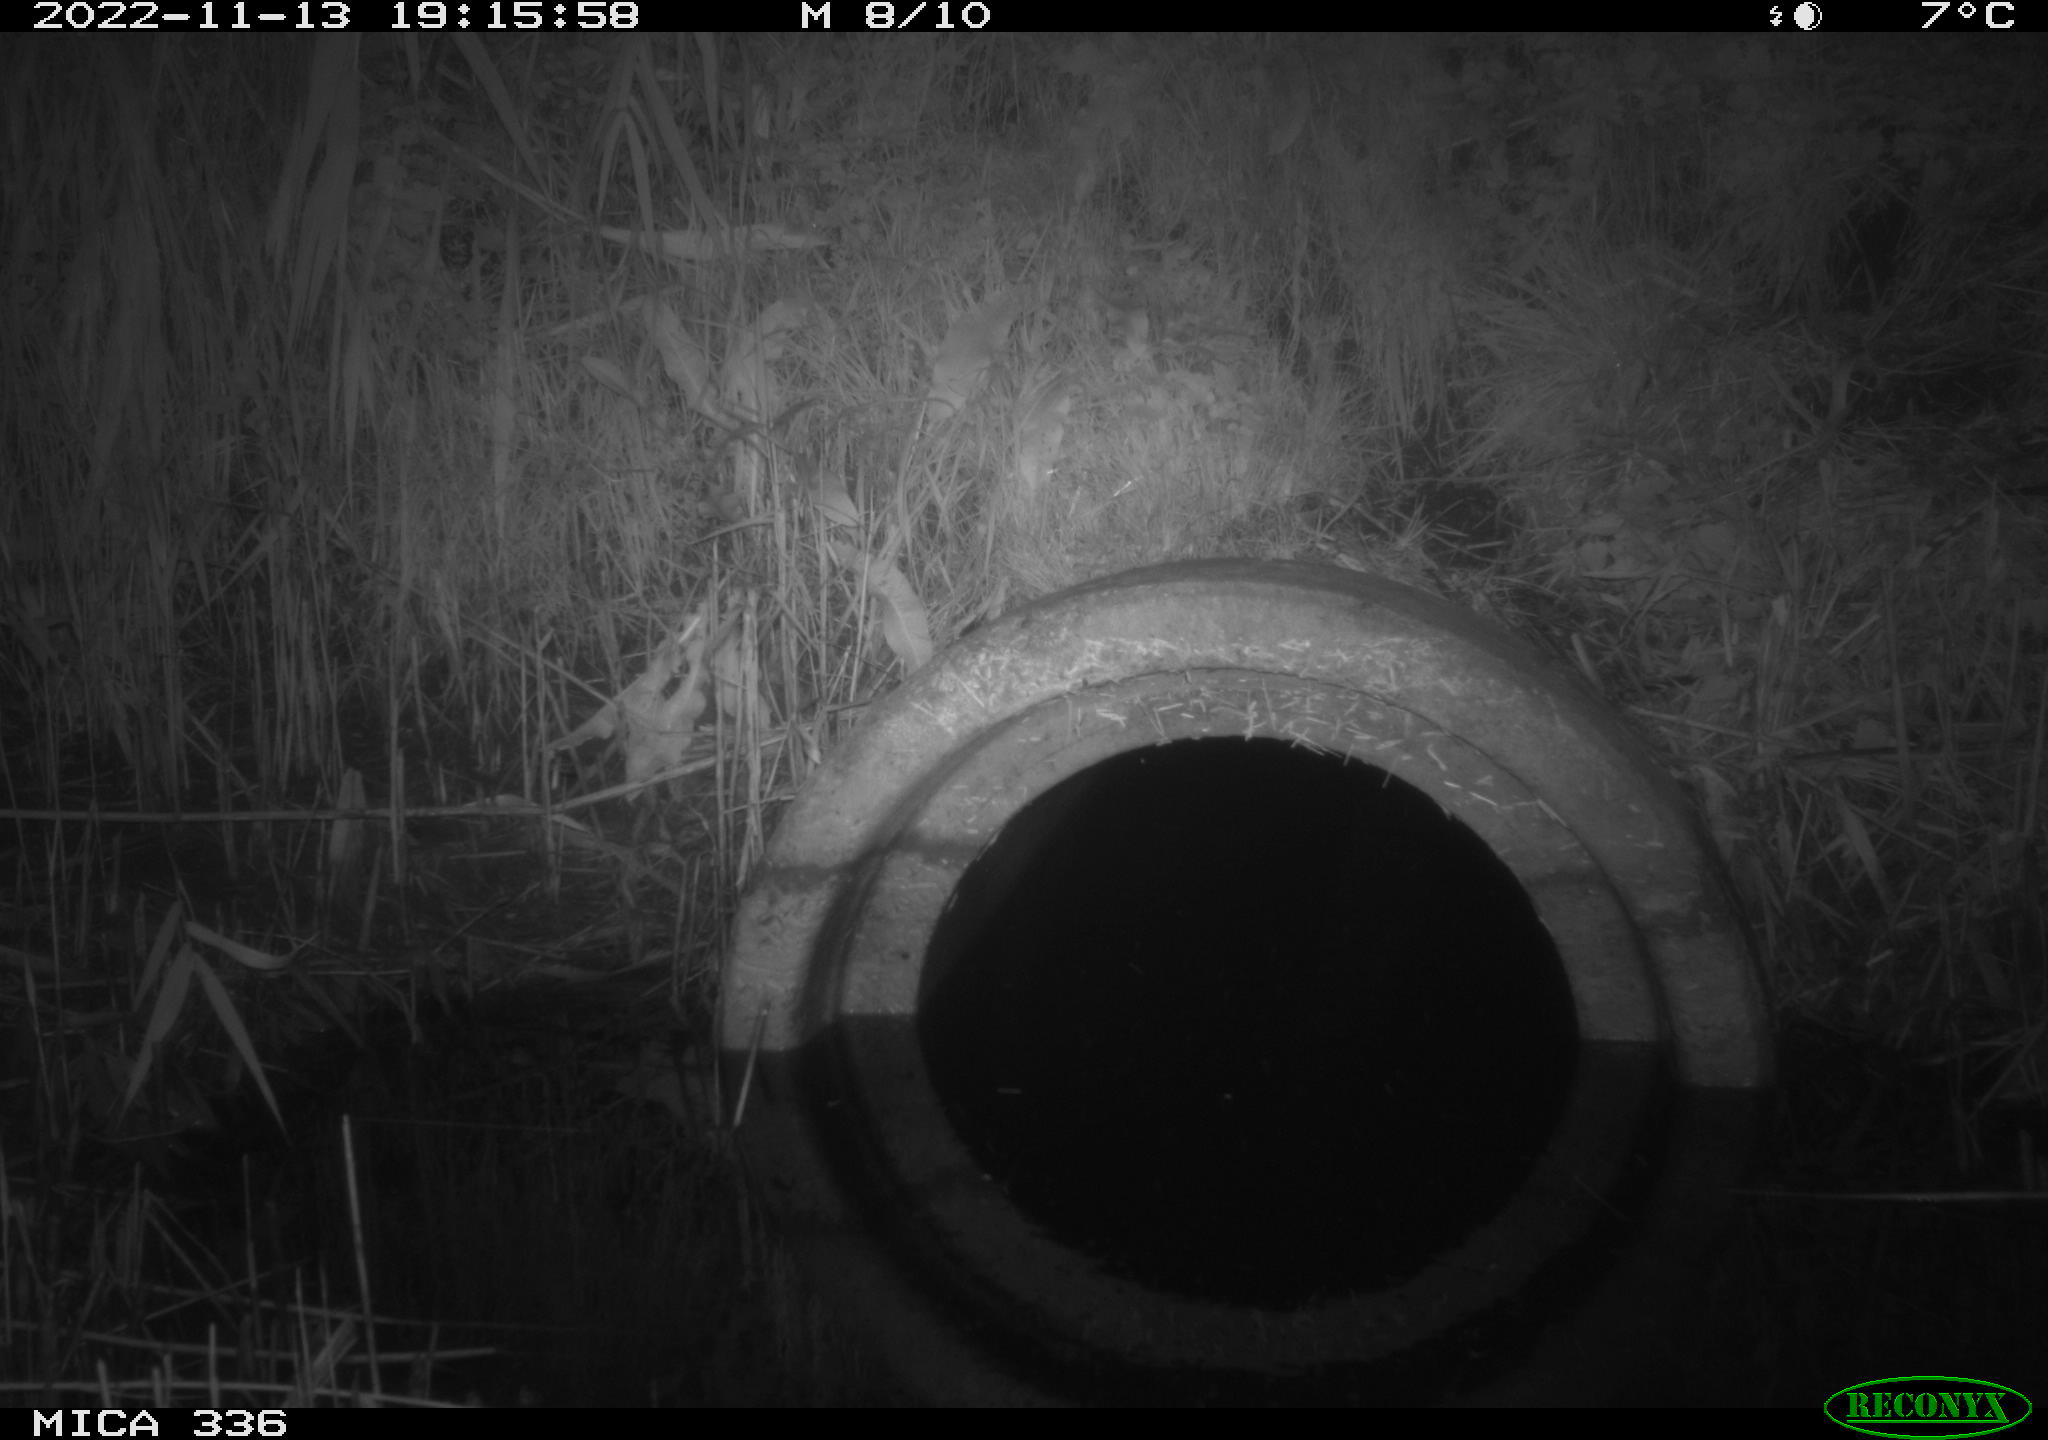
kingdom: Animalia
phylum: Chordata
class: Mammalia
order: Rodentia
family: Muridae
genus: Rattus
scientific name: Rattus norvegicus
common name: Brown rat
